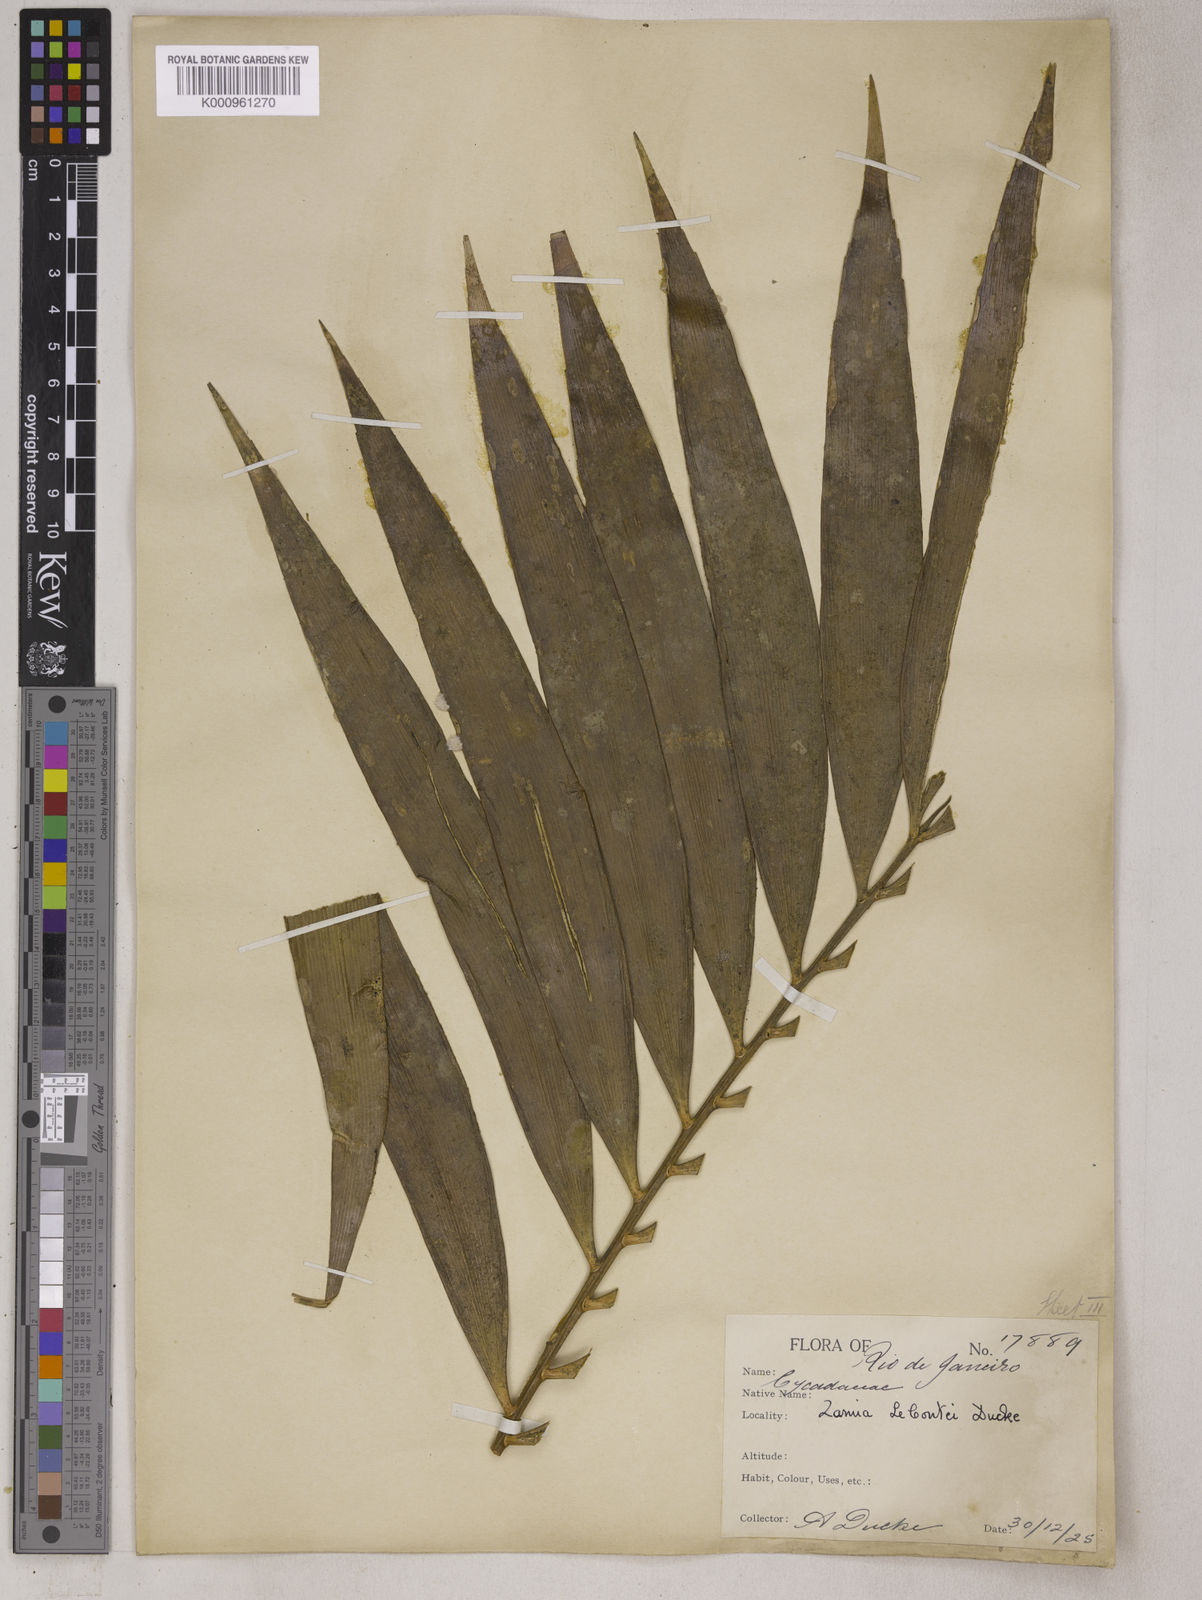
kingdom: Plantae
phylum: Tracheophyta
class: Cycadopsida
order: Cycadales
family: Zamiaceae
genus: Zamia
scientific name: Zamia lecointei
